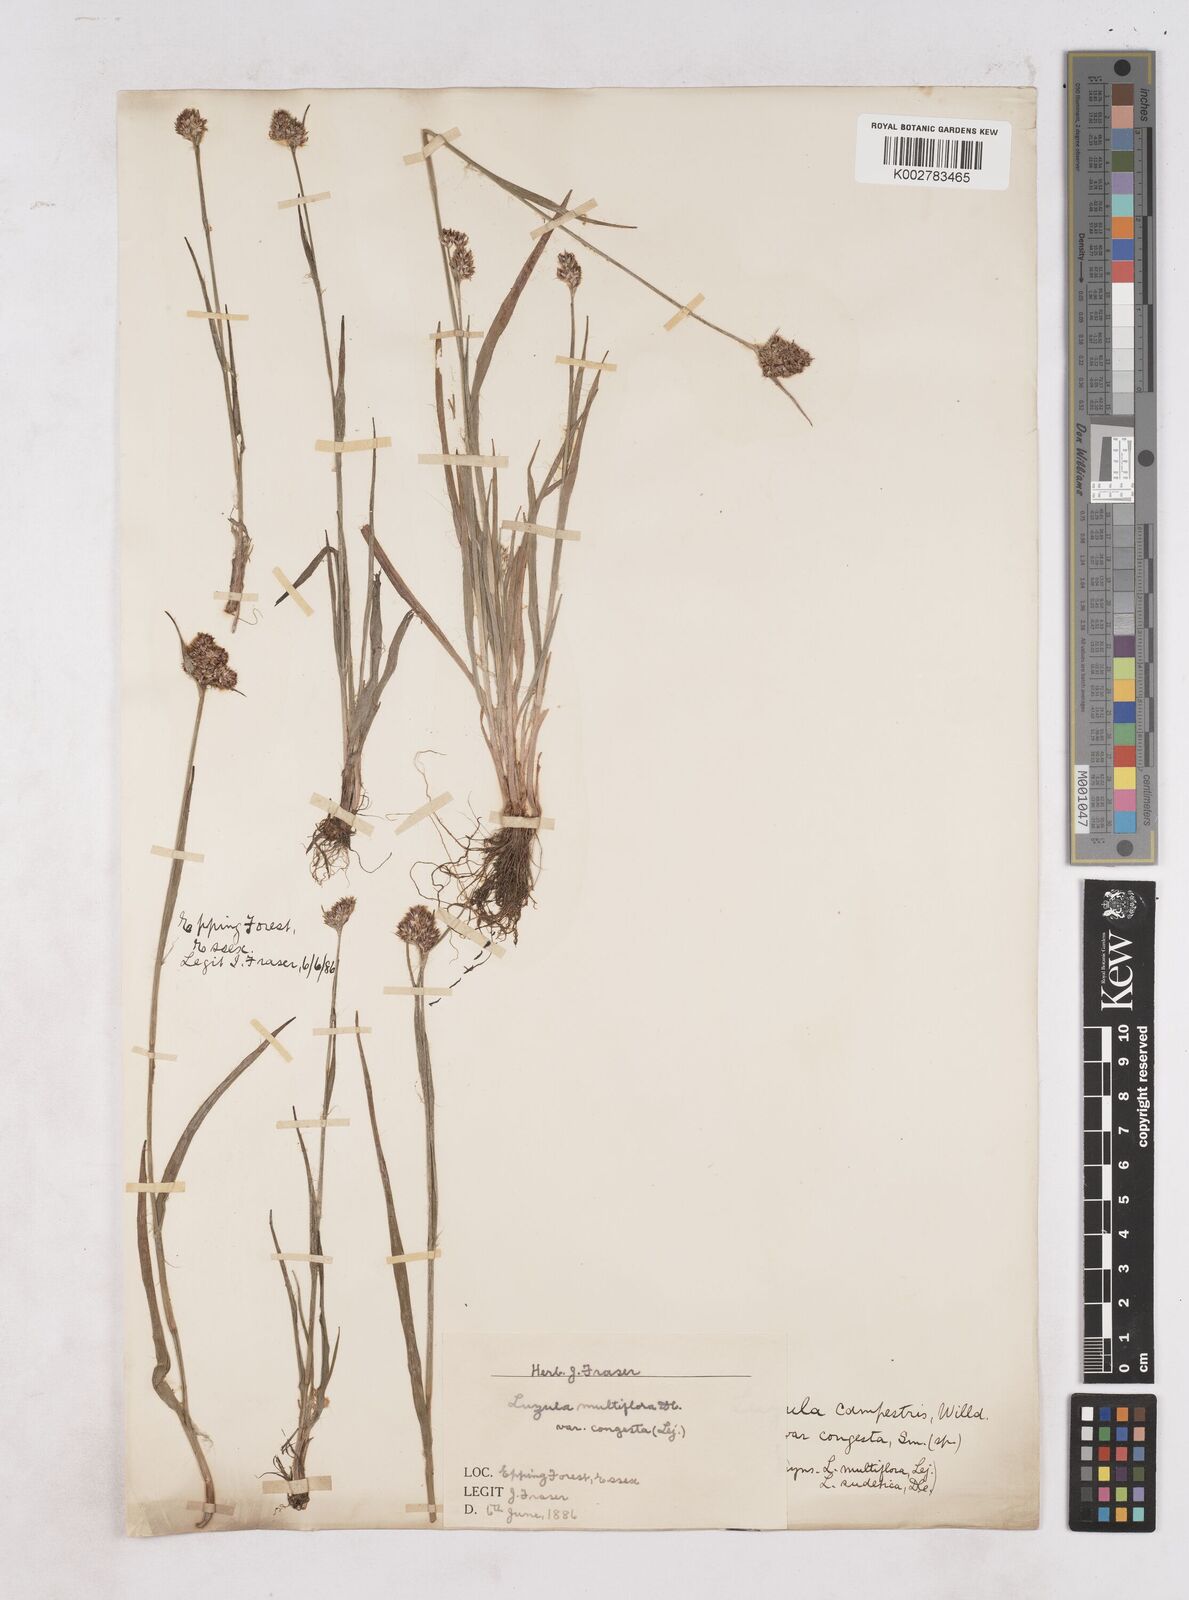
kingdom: Plantae
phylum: Tracheophyta
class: Liliopsida
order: Poales
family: Juncaceae
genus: Luzula
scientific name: Luzula campestris
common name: Field wood-rush
